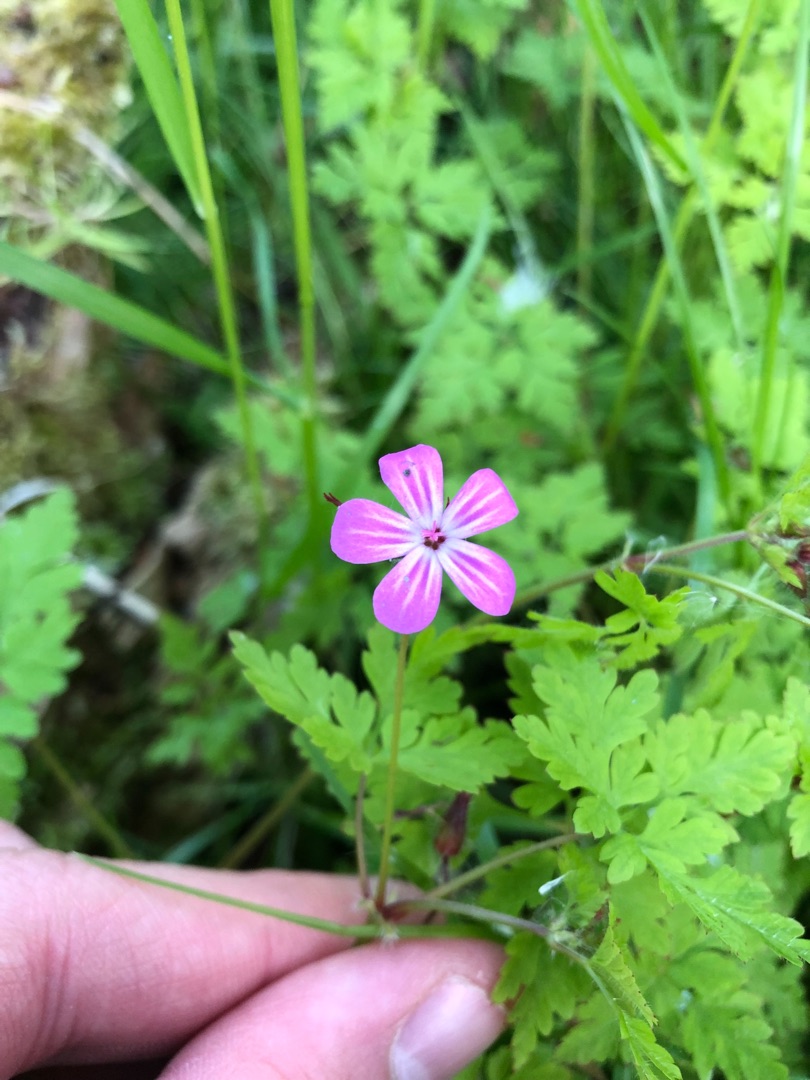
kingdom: Plantae
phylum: Tracheophyta
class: Magnoliopsida
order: Geraniales
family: Geraniaceae
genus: Geranium
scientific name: Geranium robertianum
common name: Stinkende storkenæb
